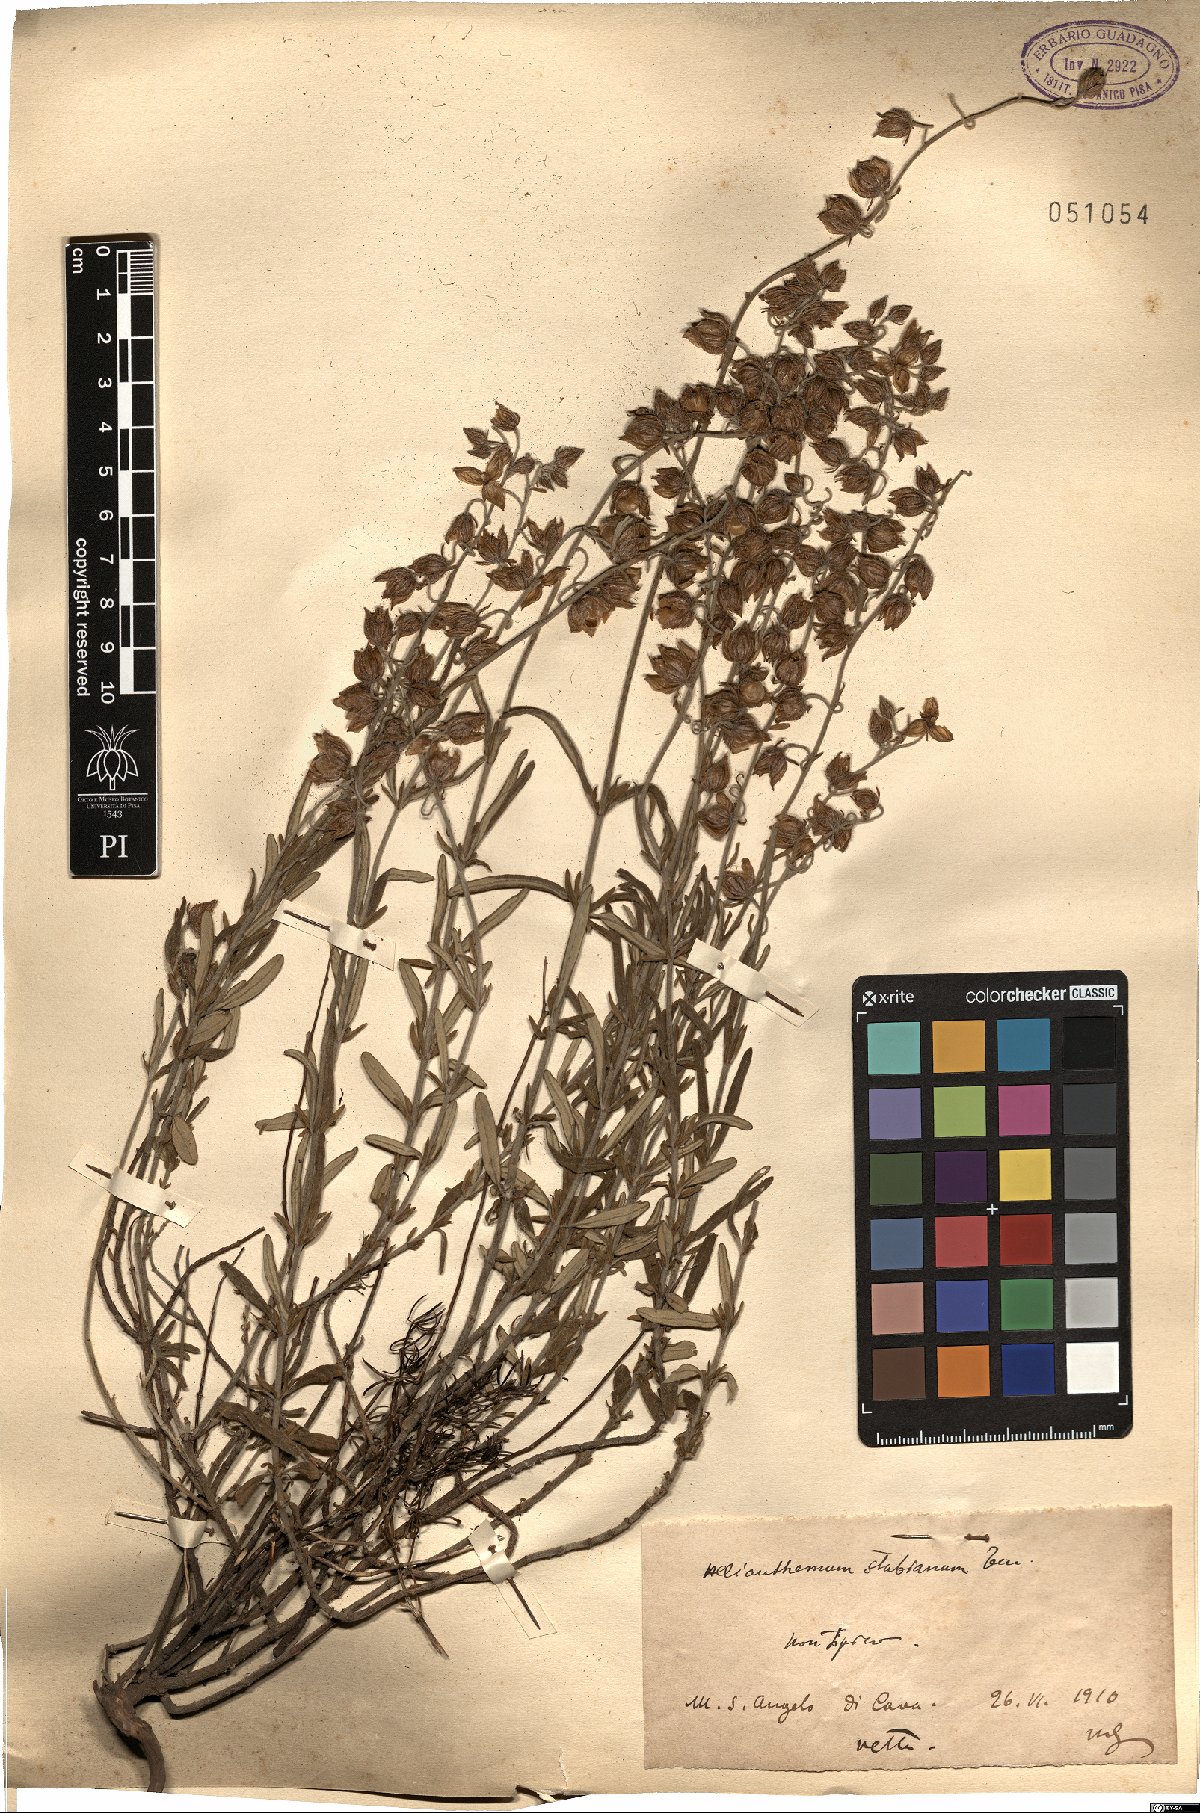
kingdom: Plantae
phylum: Tracheophyta
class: Magnoliopsida
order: Malvales
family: Cistaceae
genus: Helianthemum
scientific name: Helianthemum croceum
